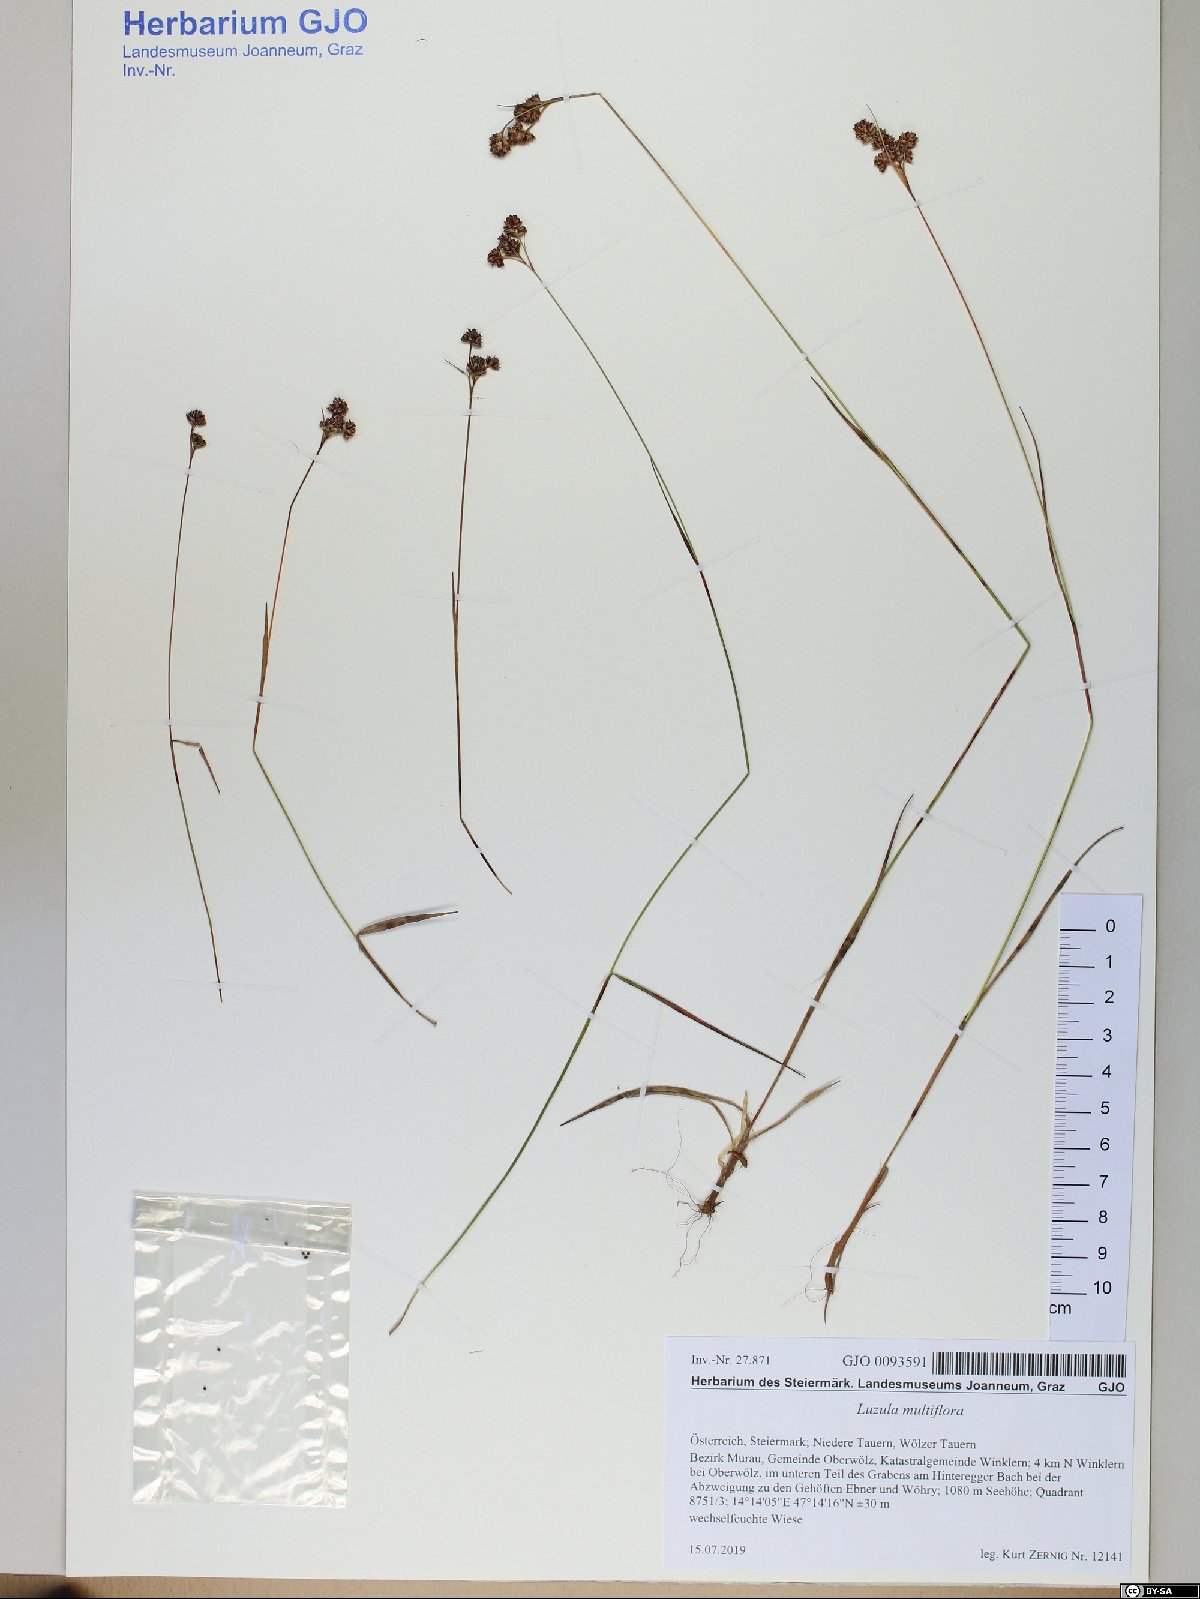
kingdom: Plantae
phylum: Tracheophyta
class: Liliopsida
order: Poales
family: Juncaceae
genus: Luzula
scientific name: Luzula multiflora
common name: Heath wood-rush
